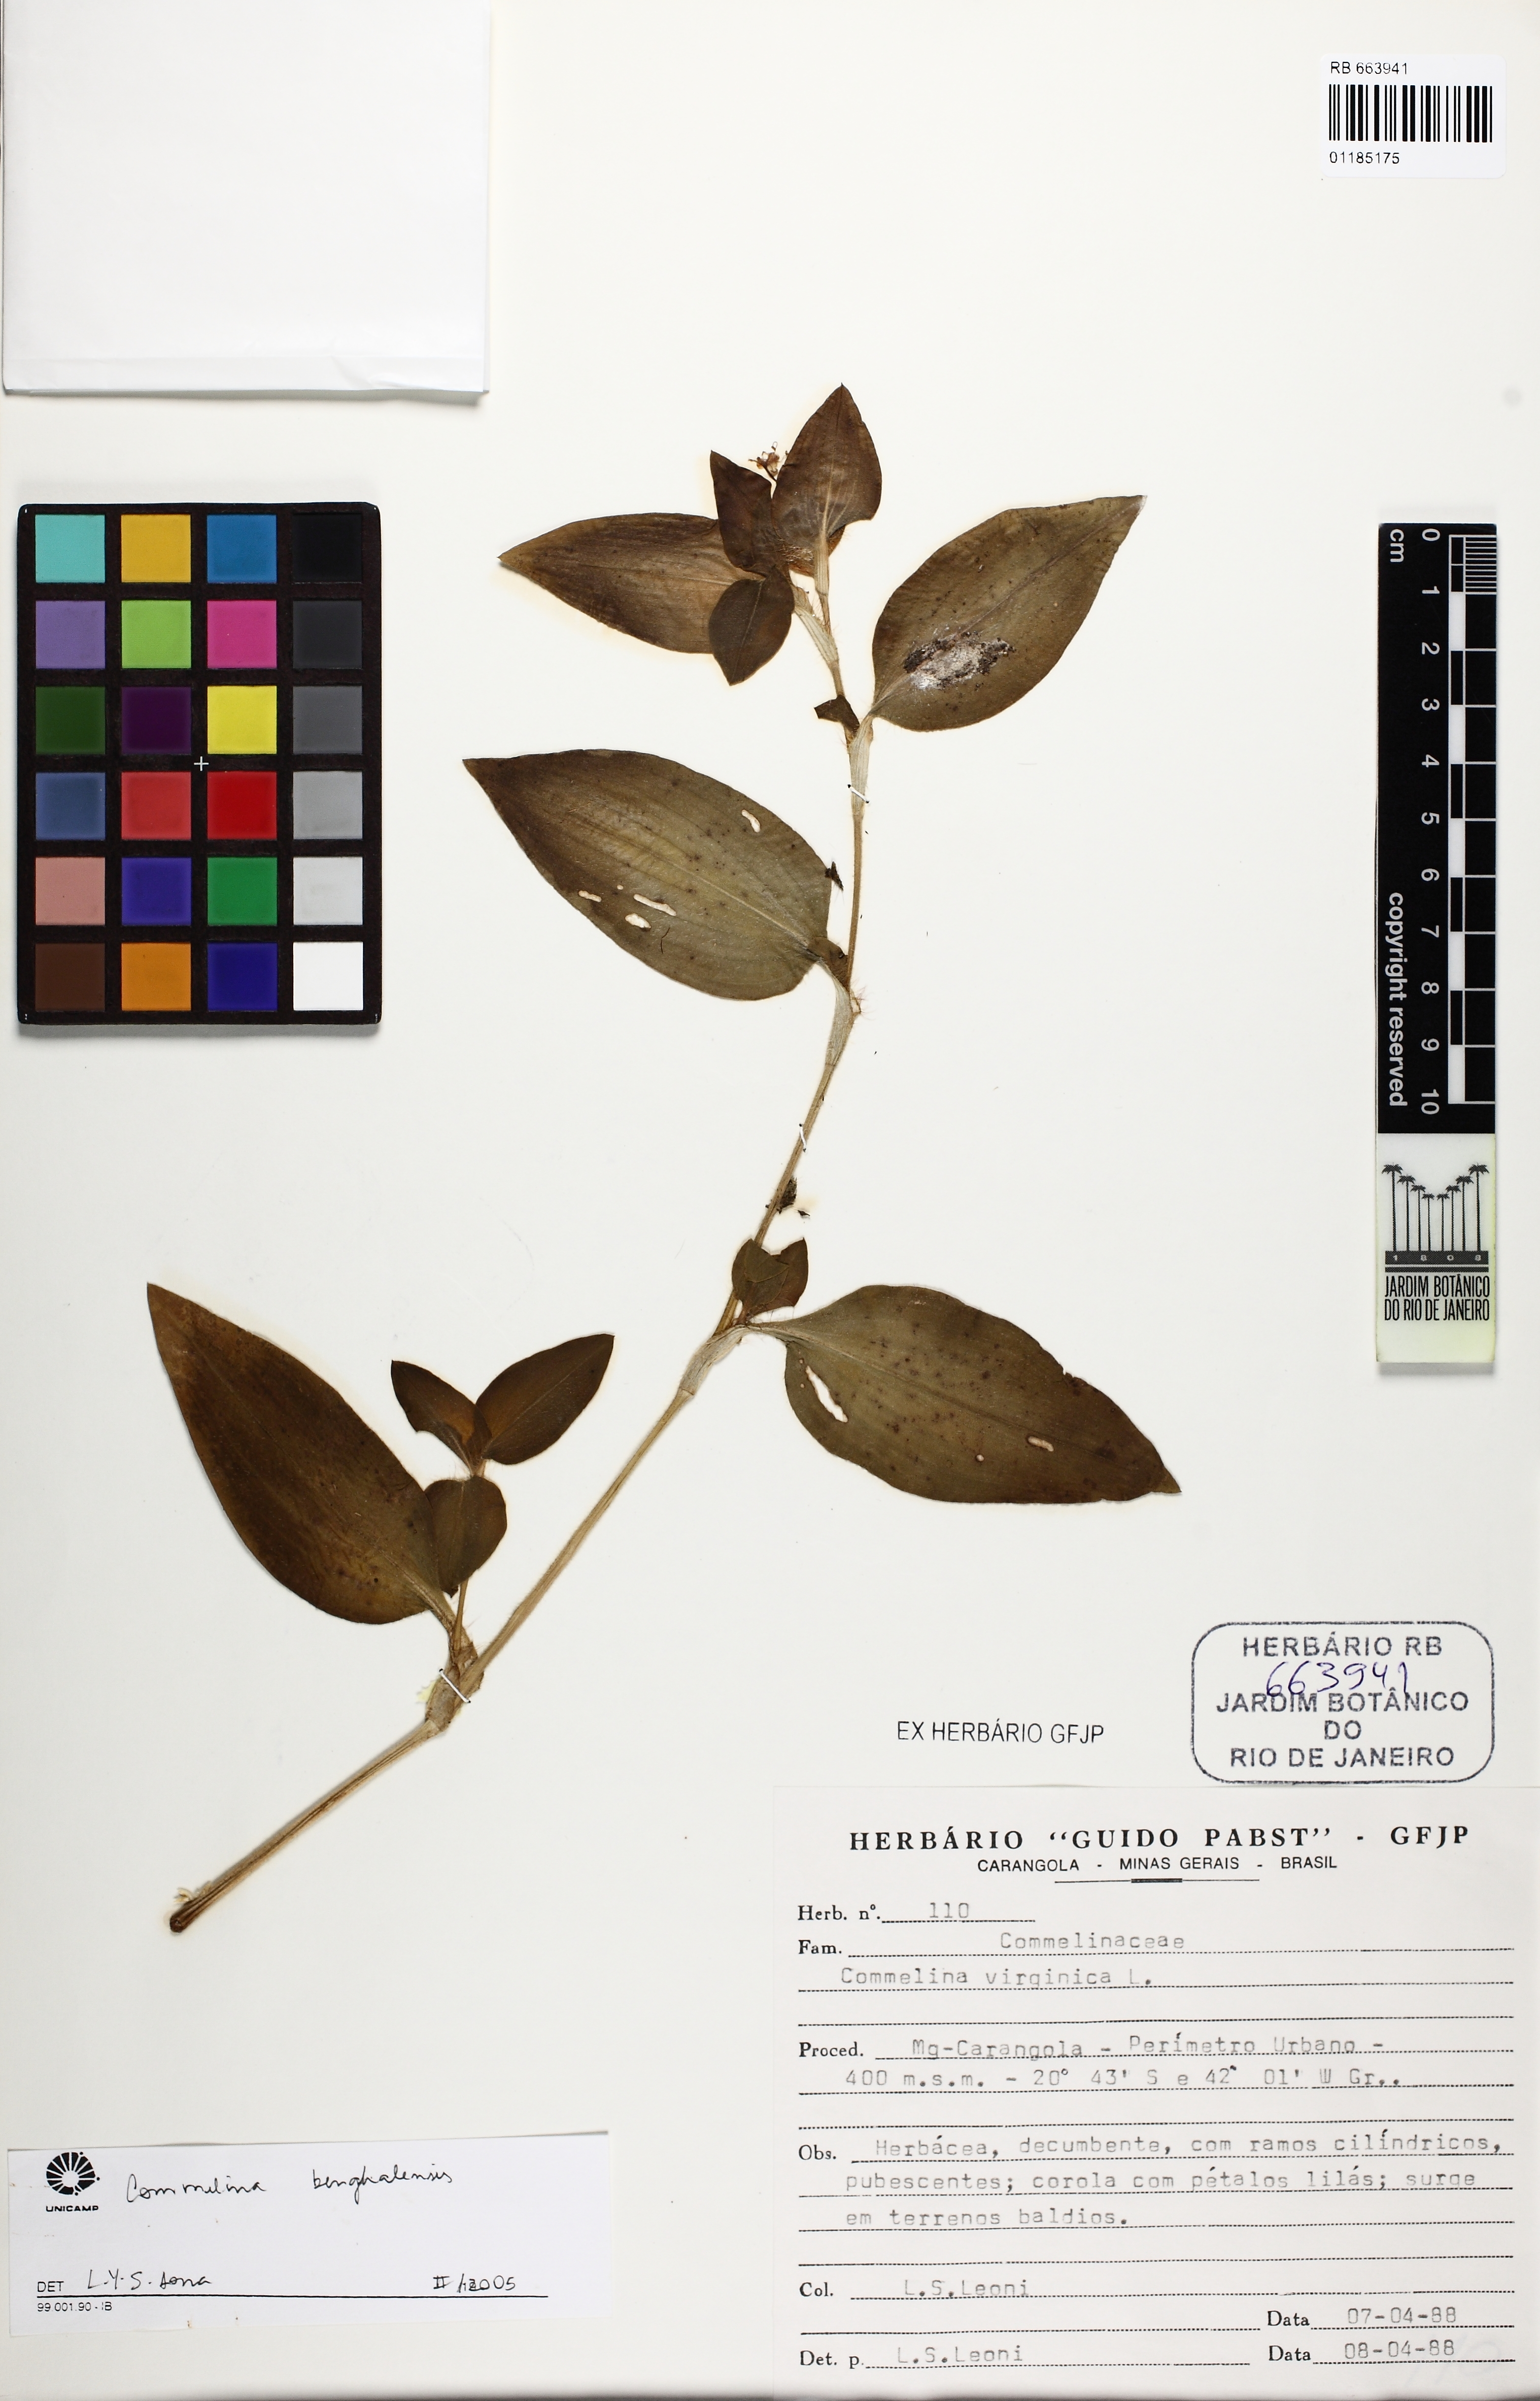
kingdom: Plantae
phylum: Tracheophyta
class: Liliopsida
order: Commelinales
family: Commelinaceae
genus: Commelina
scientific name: Commelina benghalensis
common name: Jio
